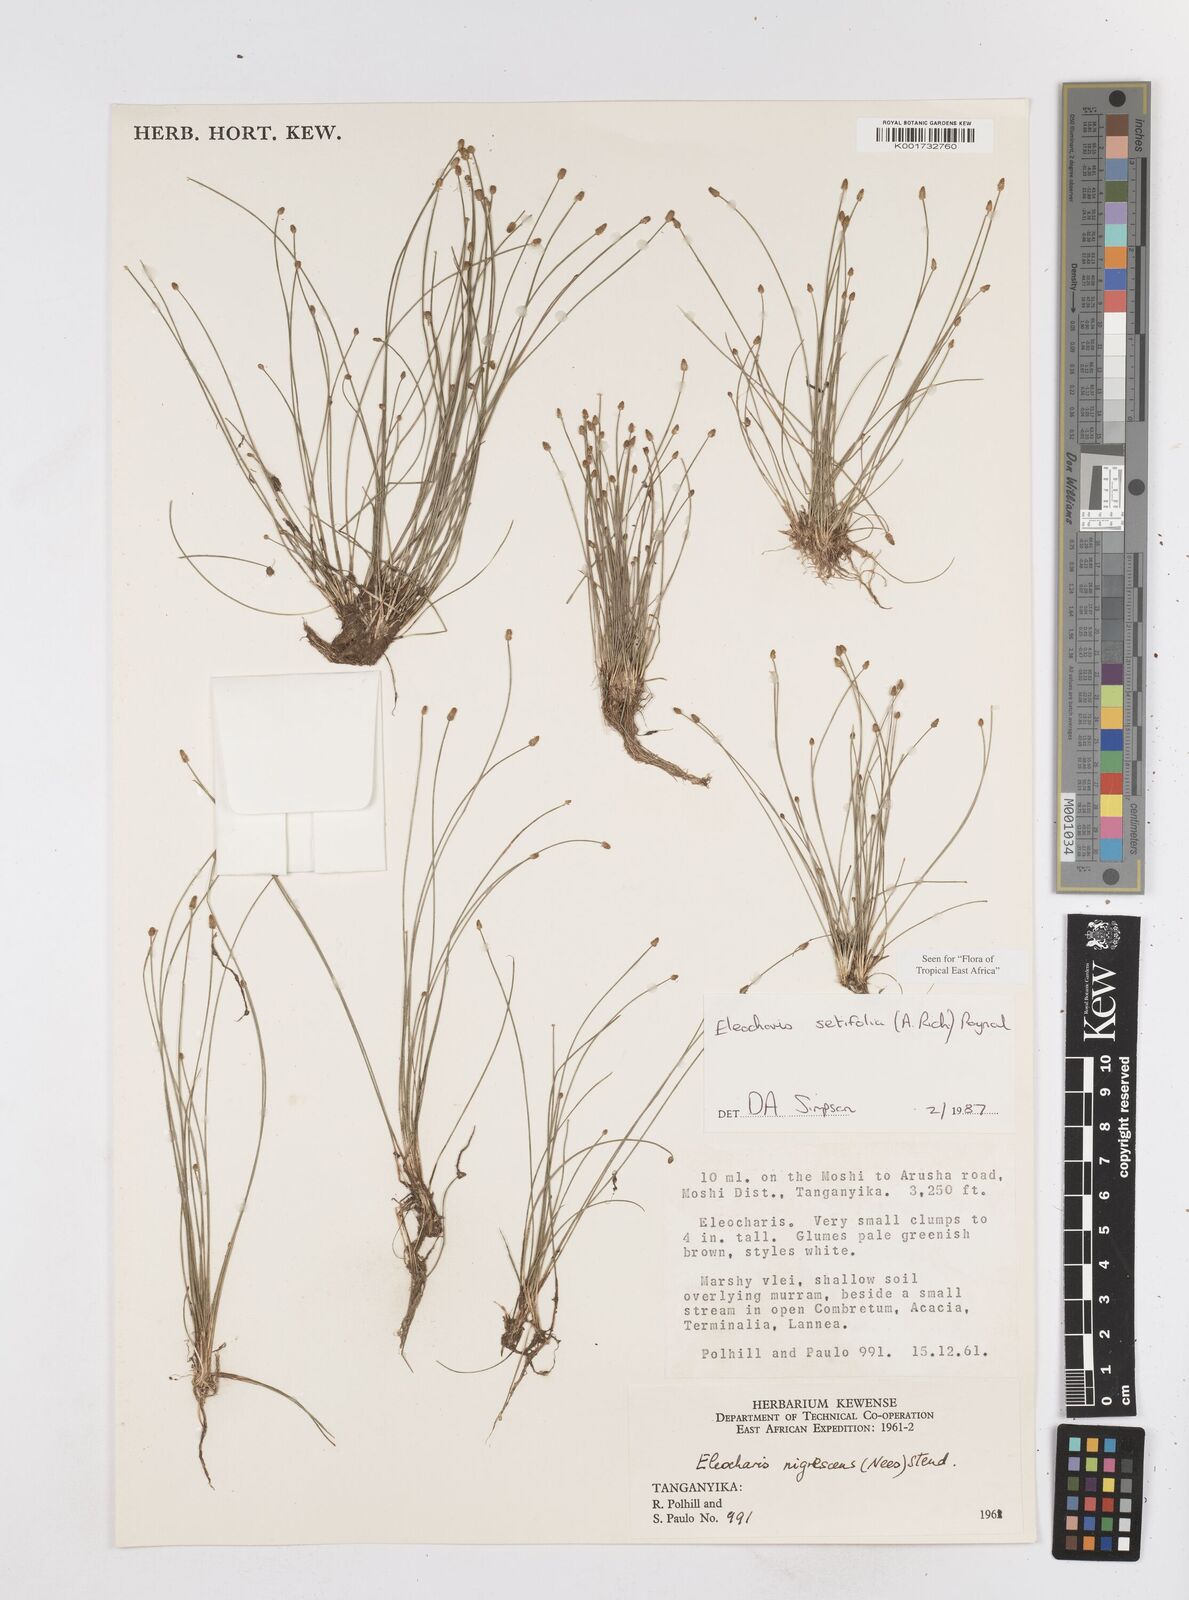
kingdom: Plantae
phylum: Tracheophyta
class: Liliopsida
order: Poales
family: Cyperaceae
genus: Eleocharis
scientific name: Eleocharis setifolia
